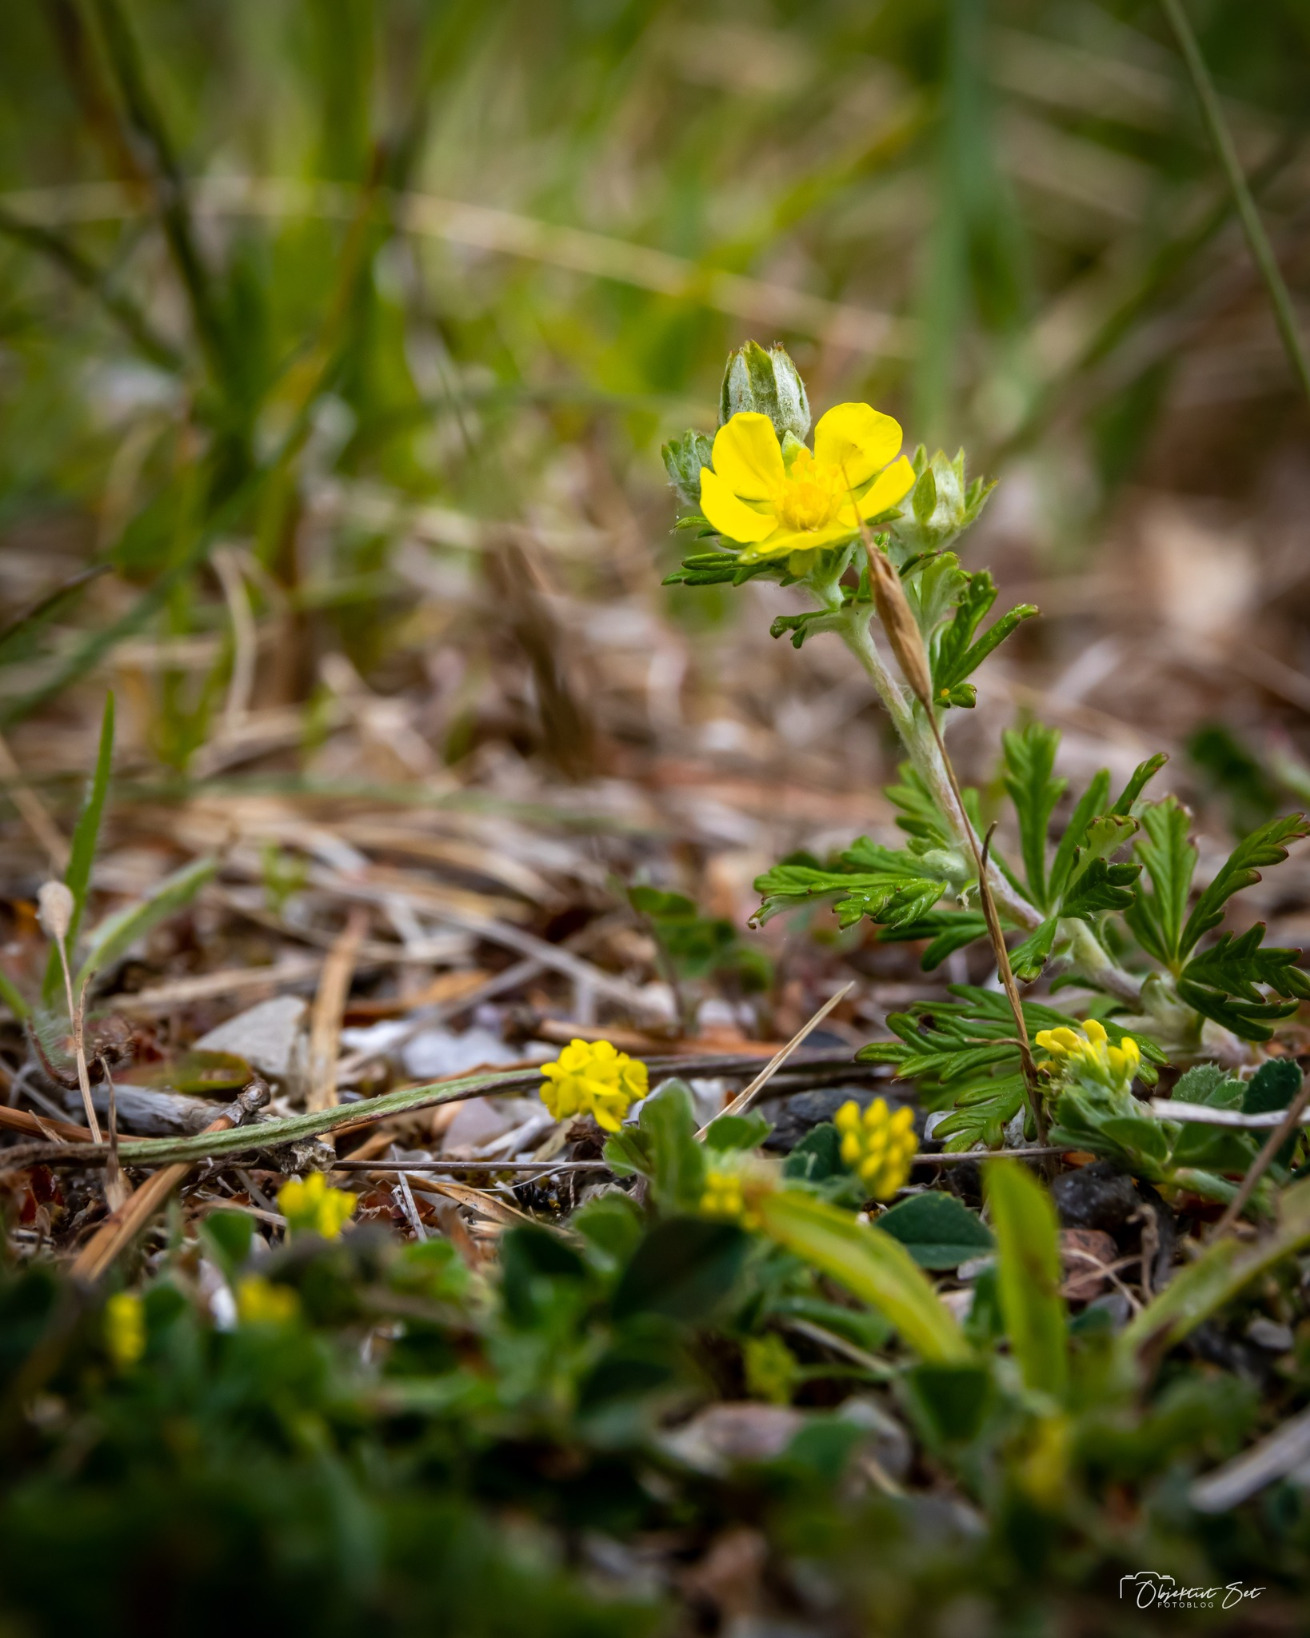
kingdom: Plantae
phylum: Tracheophyta
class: Magnoliopsida
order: Rosales
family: Rosaceae
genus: Potentilla
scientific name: Potentilla argentea
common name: Sølv-potentil
